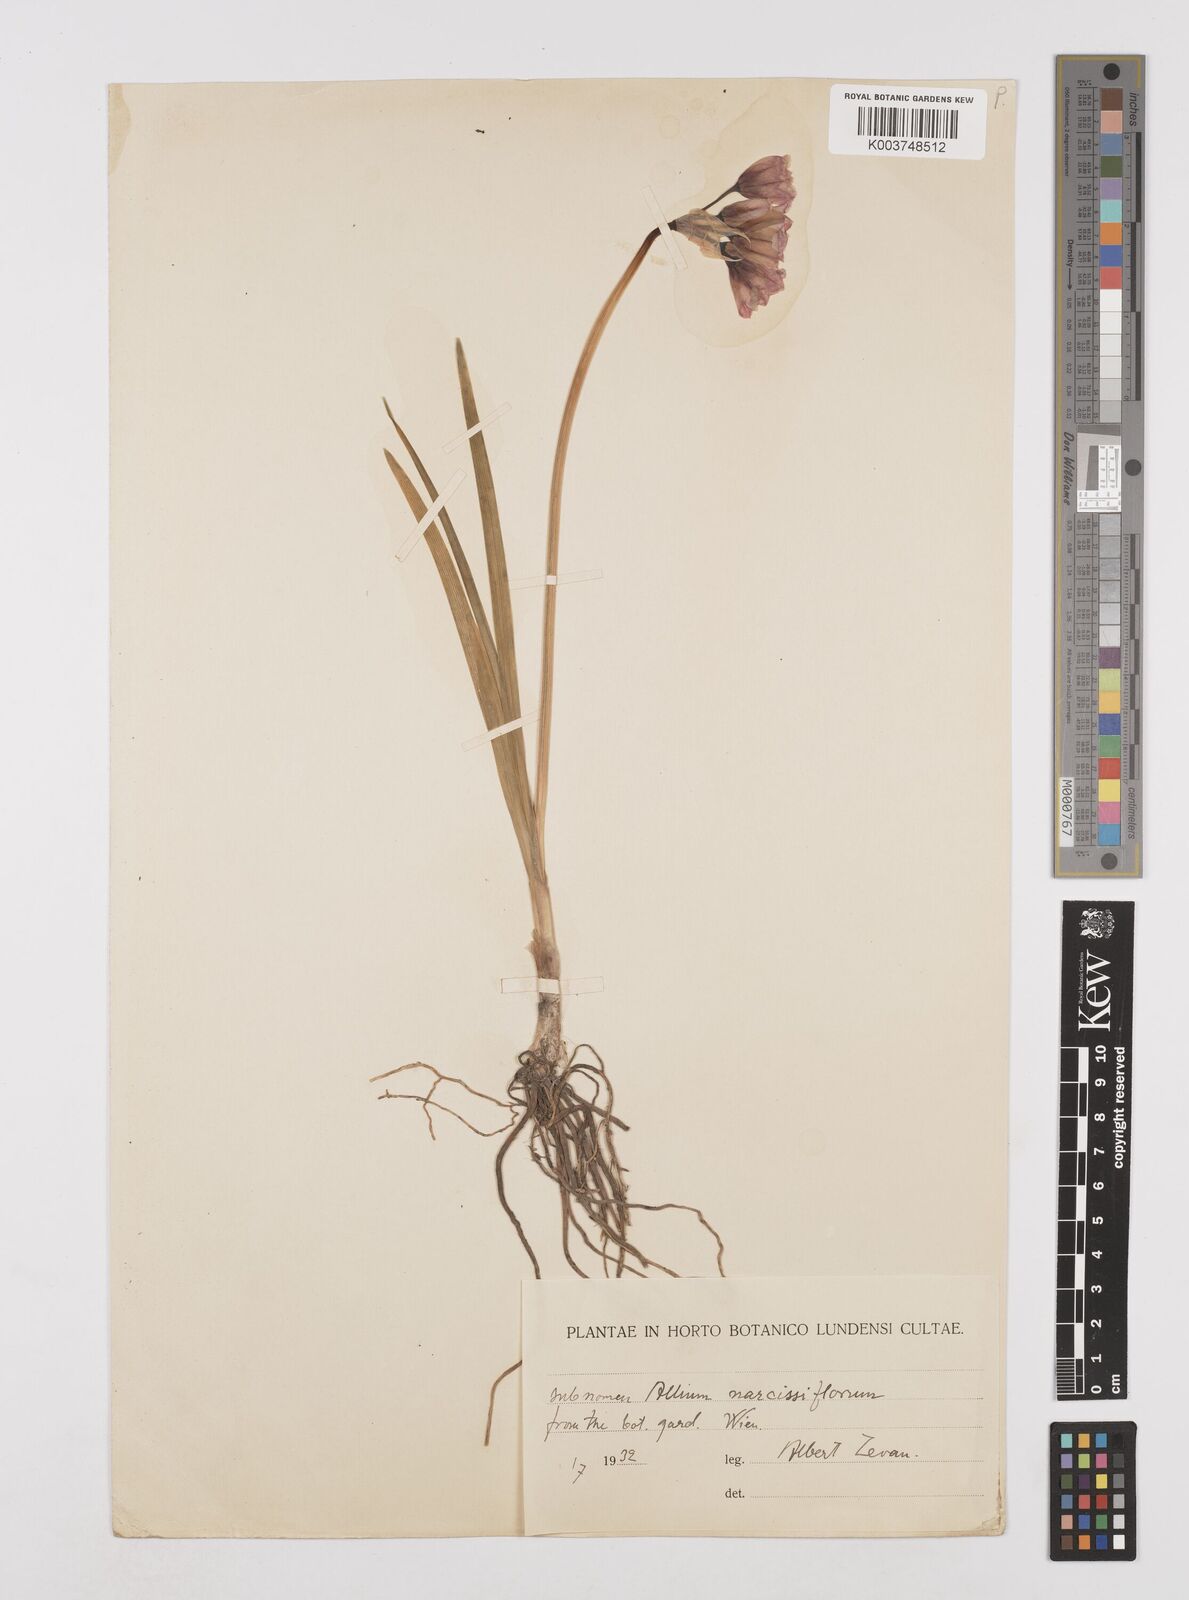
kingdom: Plantae
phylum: Tracheophyta
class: Liliopsida
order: Asparagales
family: Amaryllidaceae
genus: Allium
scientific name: Allium narcissiflorum
